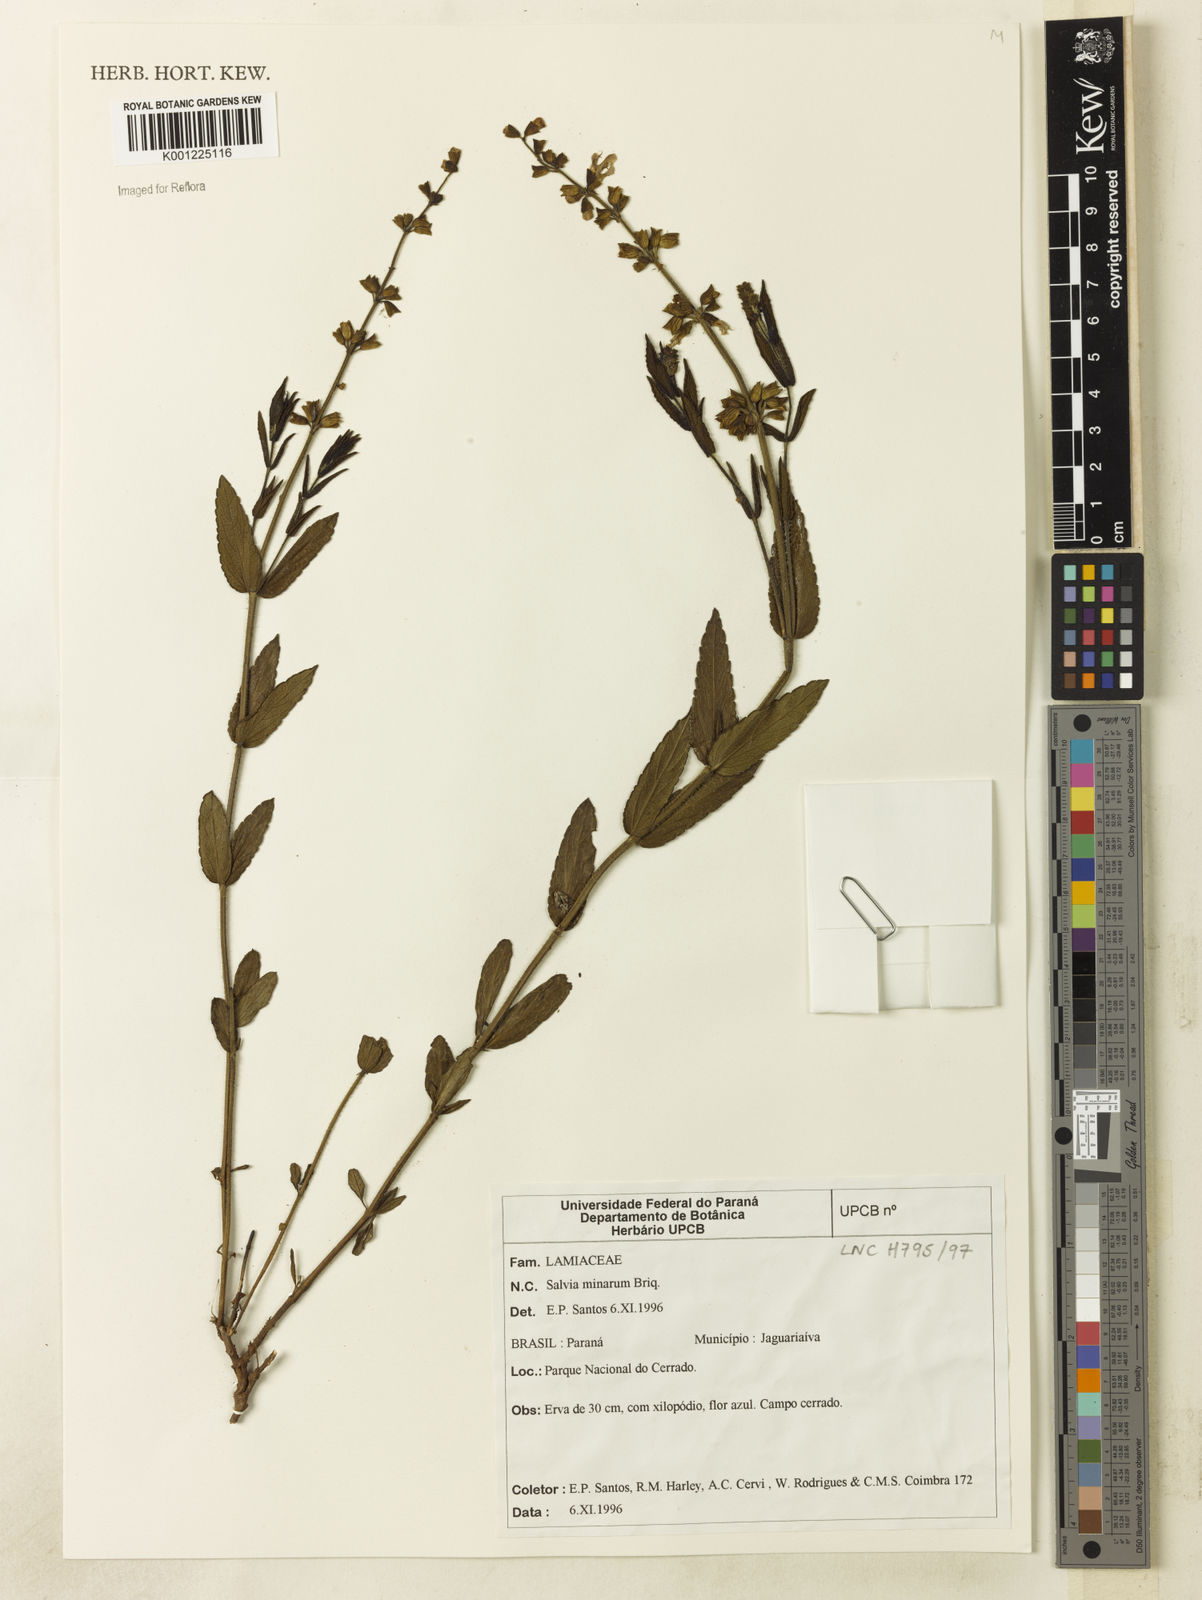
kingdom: Plantae
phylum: Tracheophyta
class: Magnoliopsida
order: Lamiales
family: Lamiaceae
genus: Salvia
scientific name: Salvia minarum
